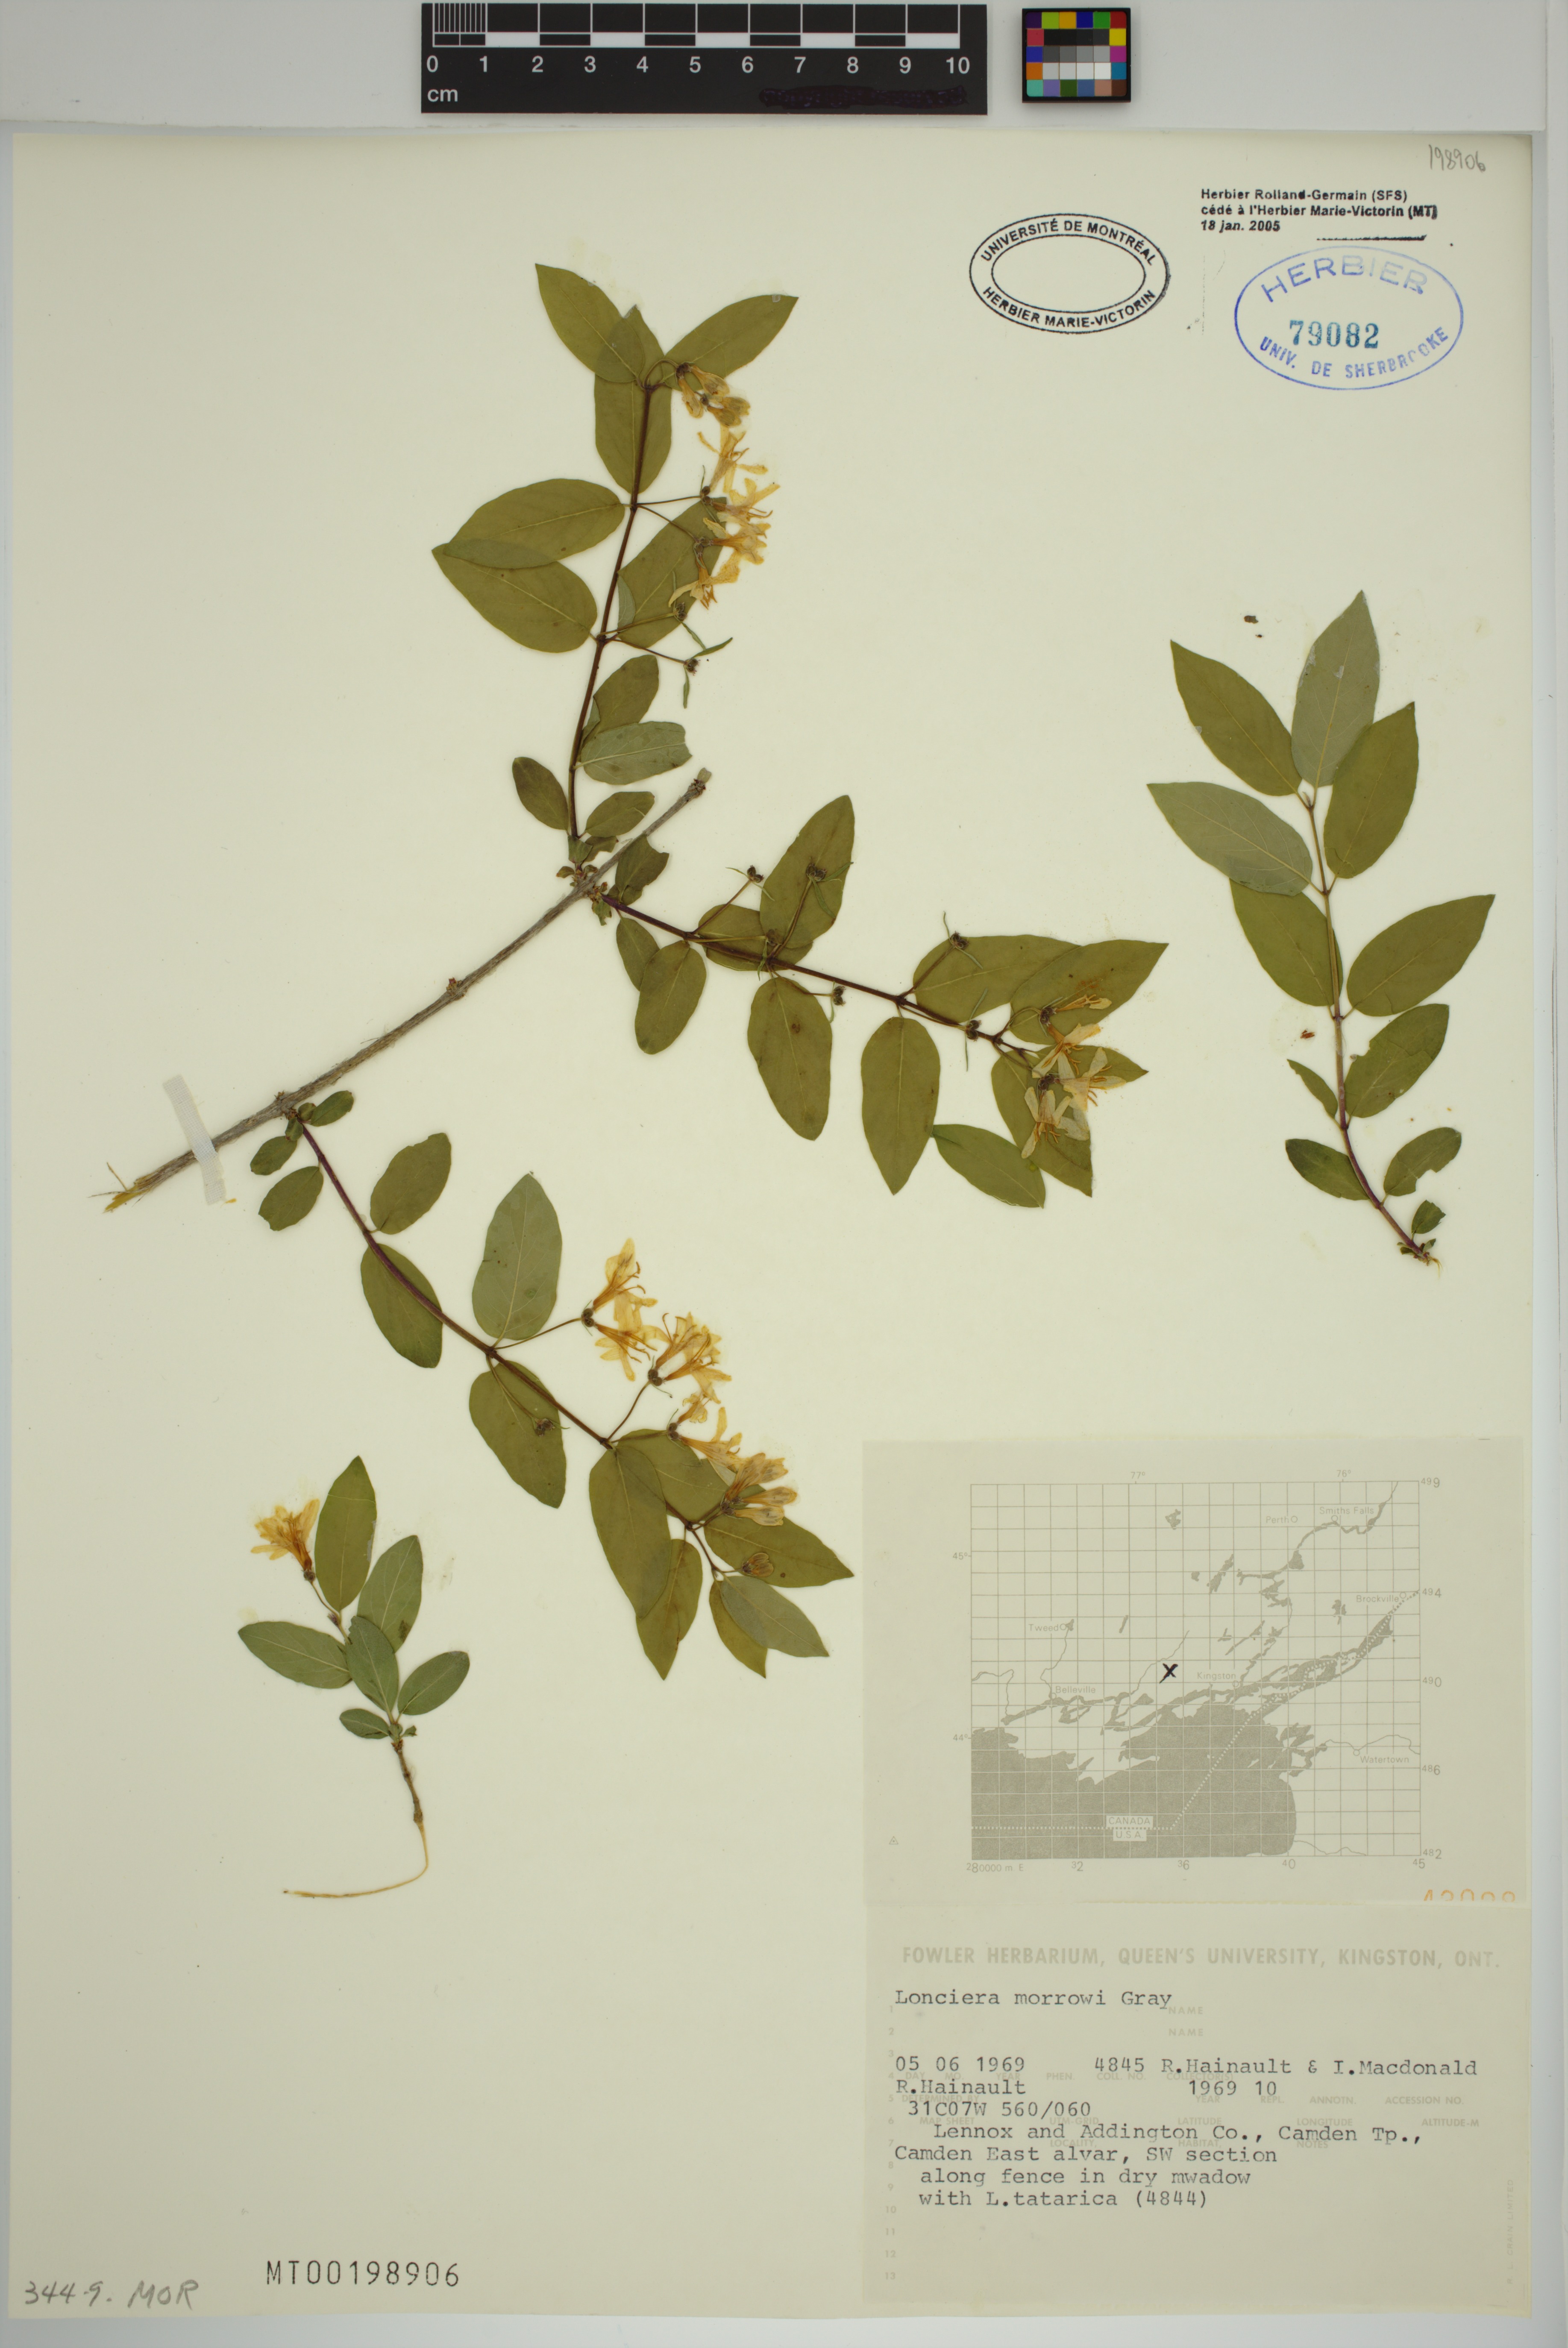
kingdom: Plantae
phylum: Tracheophyta
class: Magnoliopsida
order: Dipsacales
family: Caprifoliaceae
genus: Lonicera
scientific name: Lonicera bella
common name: Bell's honeysuckle
